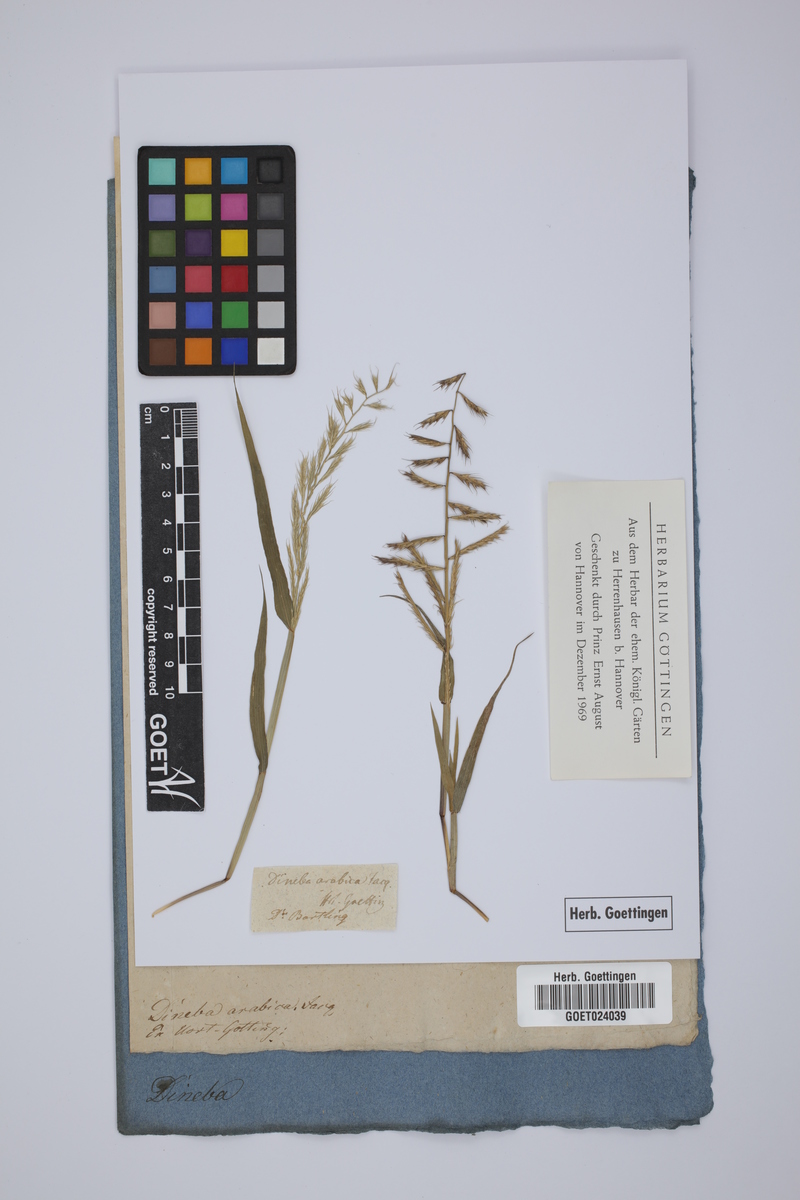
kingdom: Plantae
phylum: Tracheophyta
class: Liliopsida
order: Poales
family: Poaceae
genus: Dinebra
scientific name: Dinebra retroflexa
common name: Viper grass
